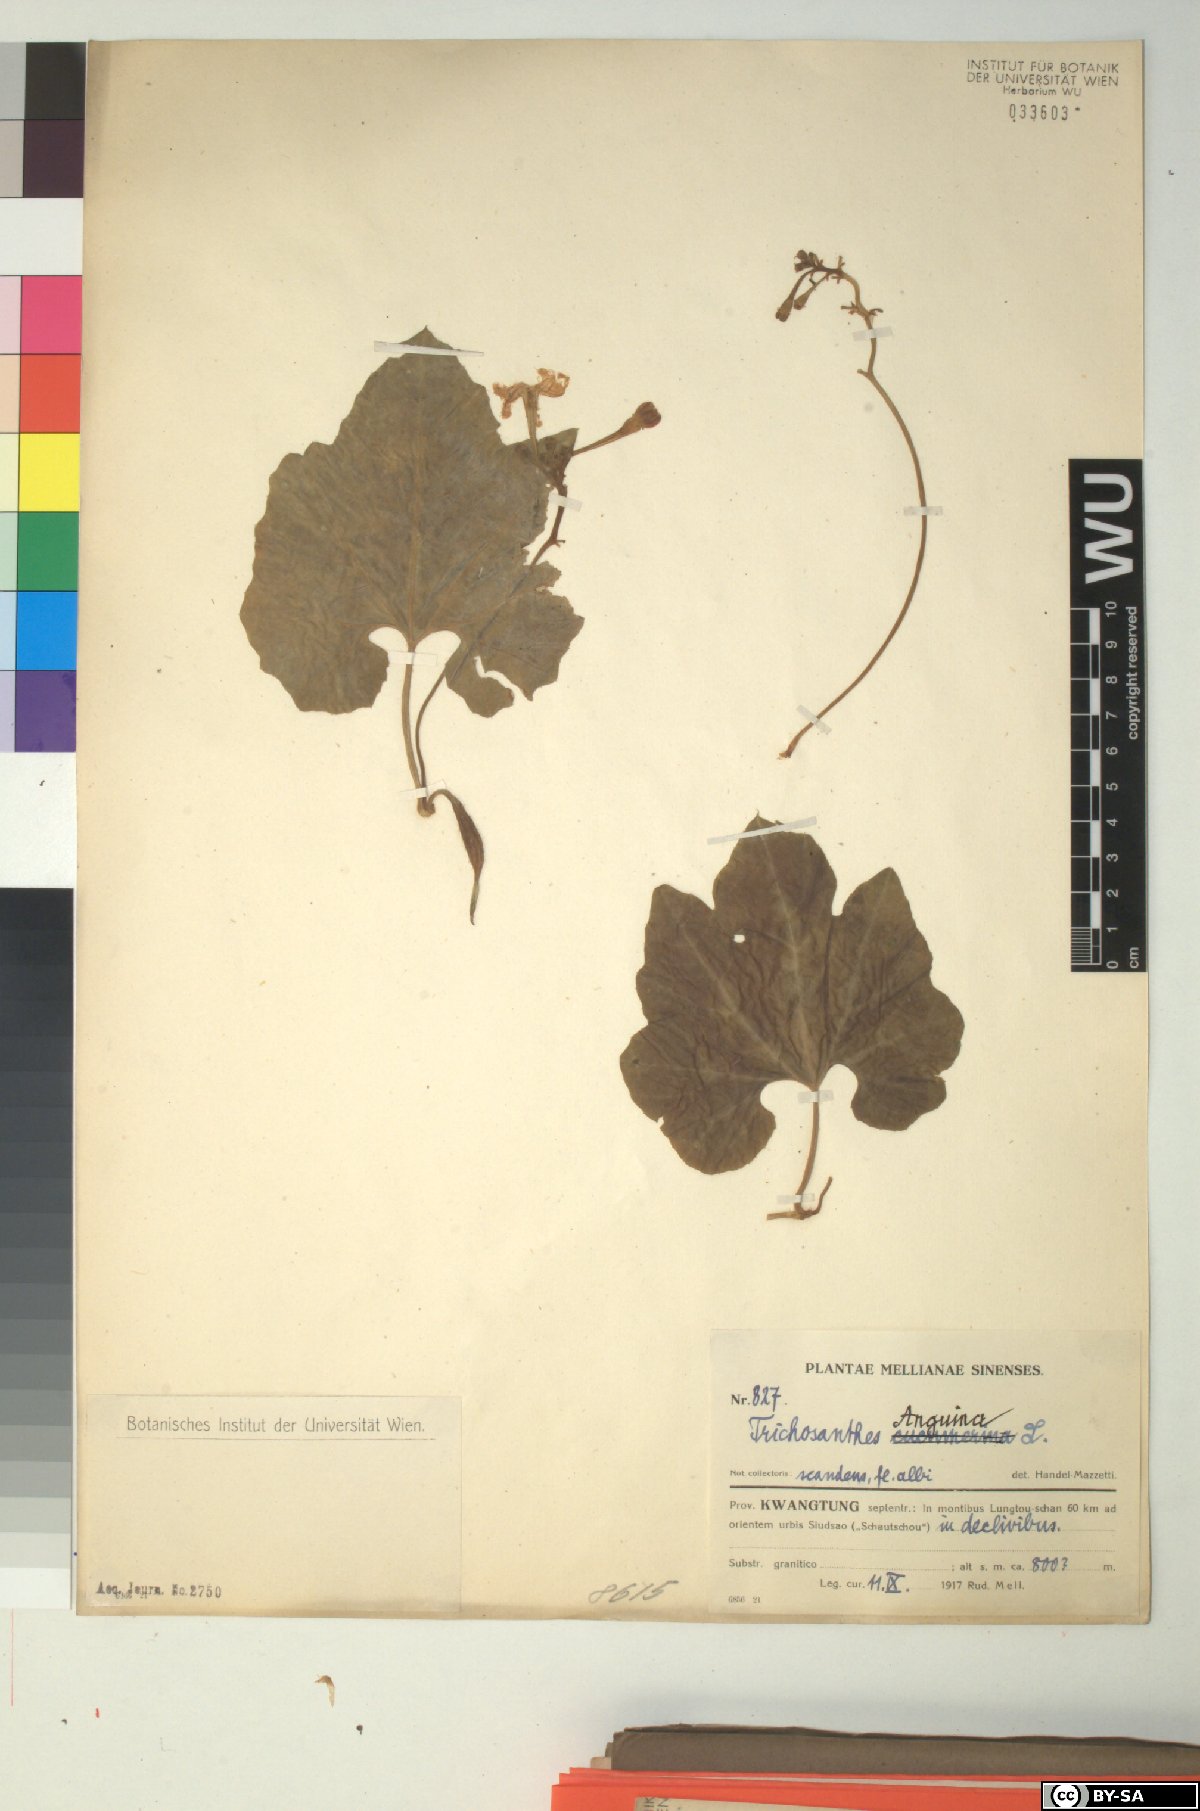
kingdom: Plantae
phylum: Tracheophyta
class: Magnoliopsida
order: Cucurbitales
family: Cucurbitaceae
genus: Trichosanthes
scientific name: Trichosanthes cucumerina
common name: Snakegourd
